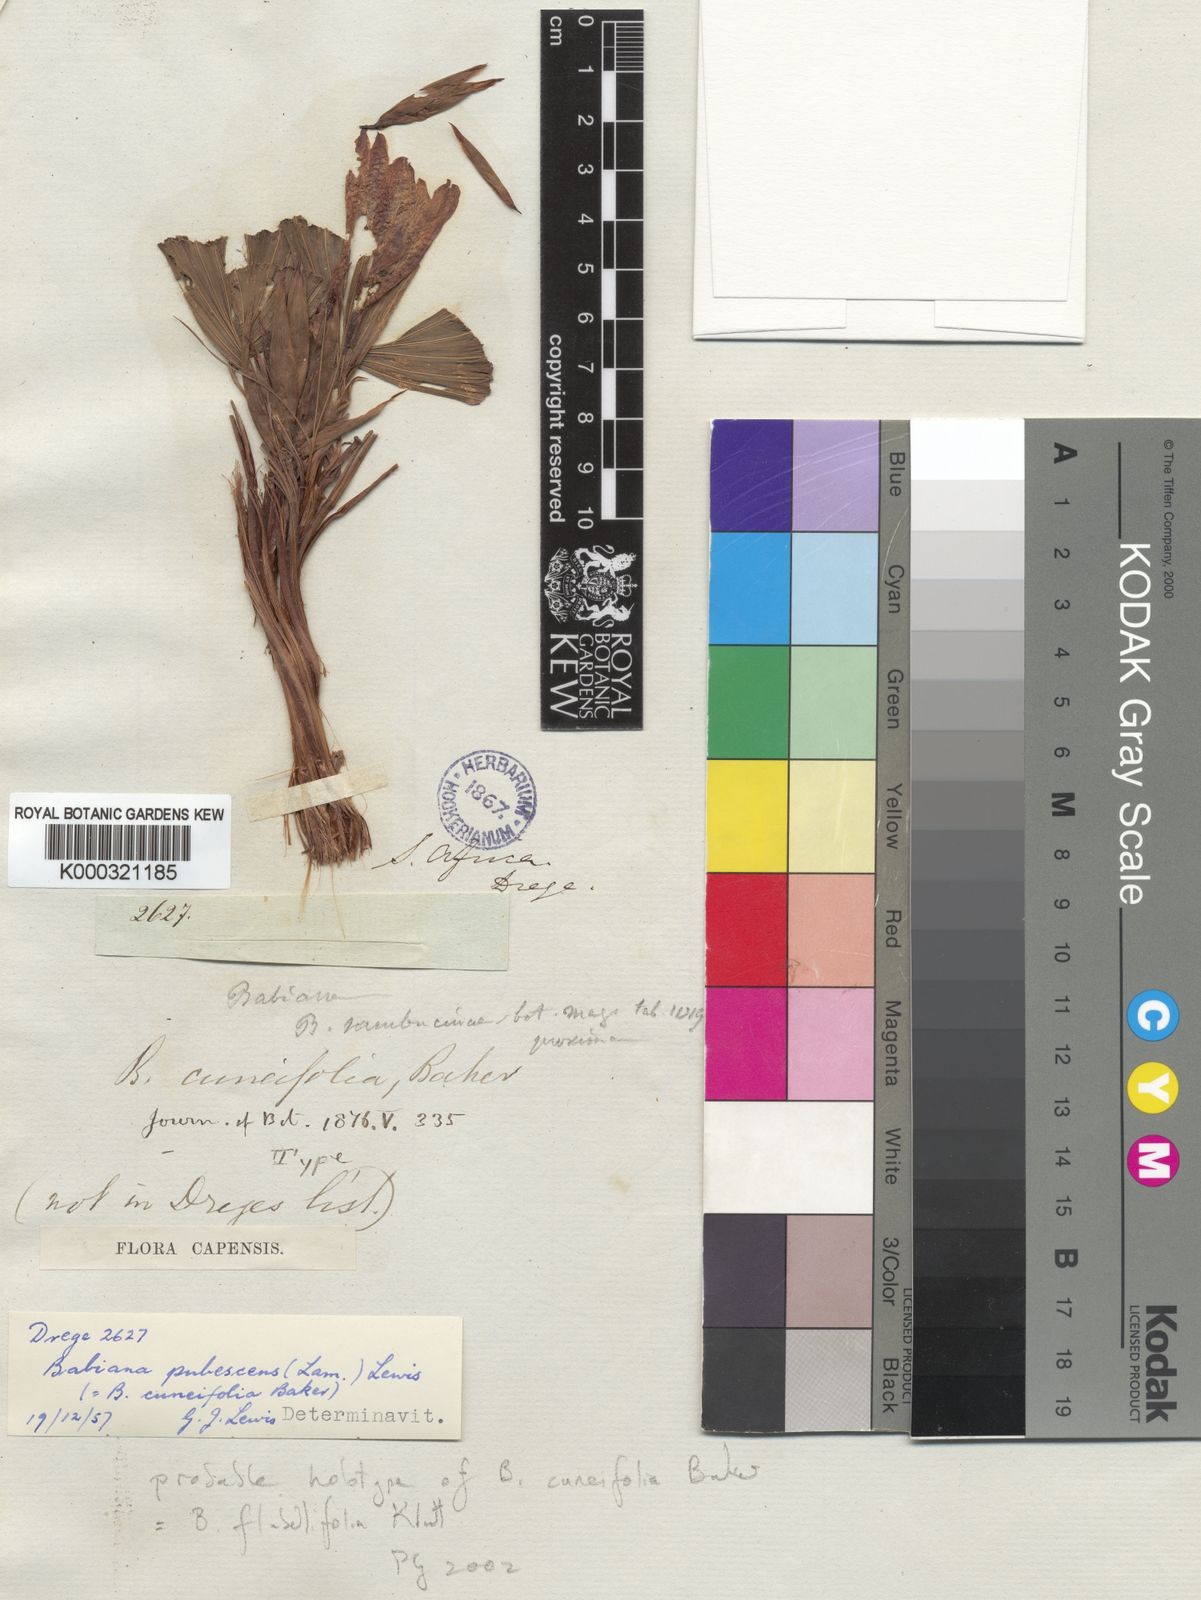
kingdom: Plantae
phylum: Tracheophyta
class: Liliopsida
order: Asparagales
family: Iridaceae
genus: Babiana
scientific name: Babiana flabellifolia
